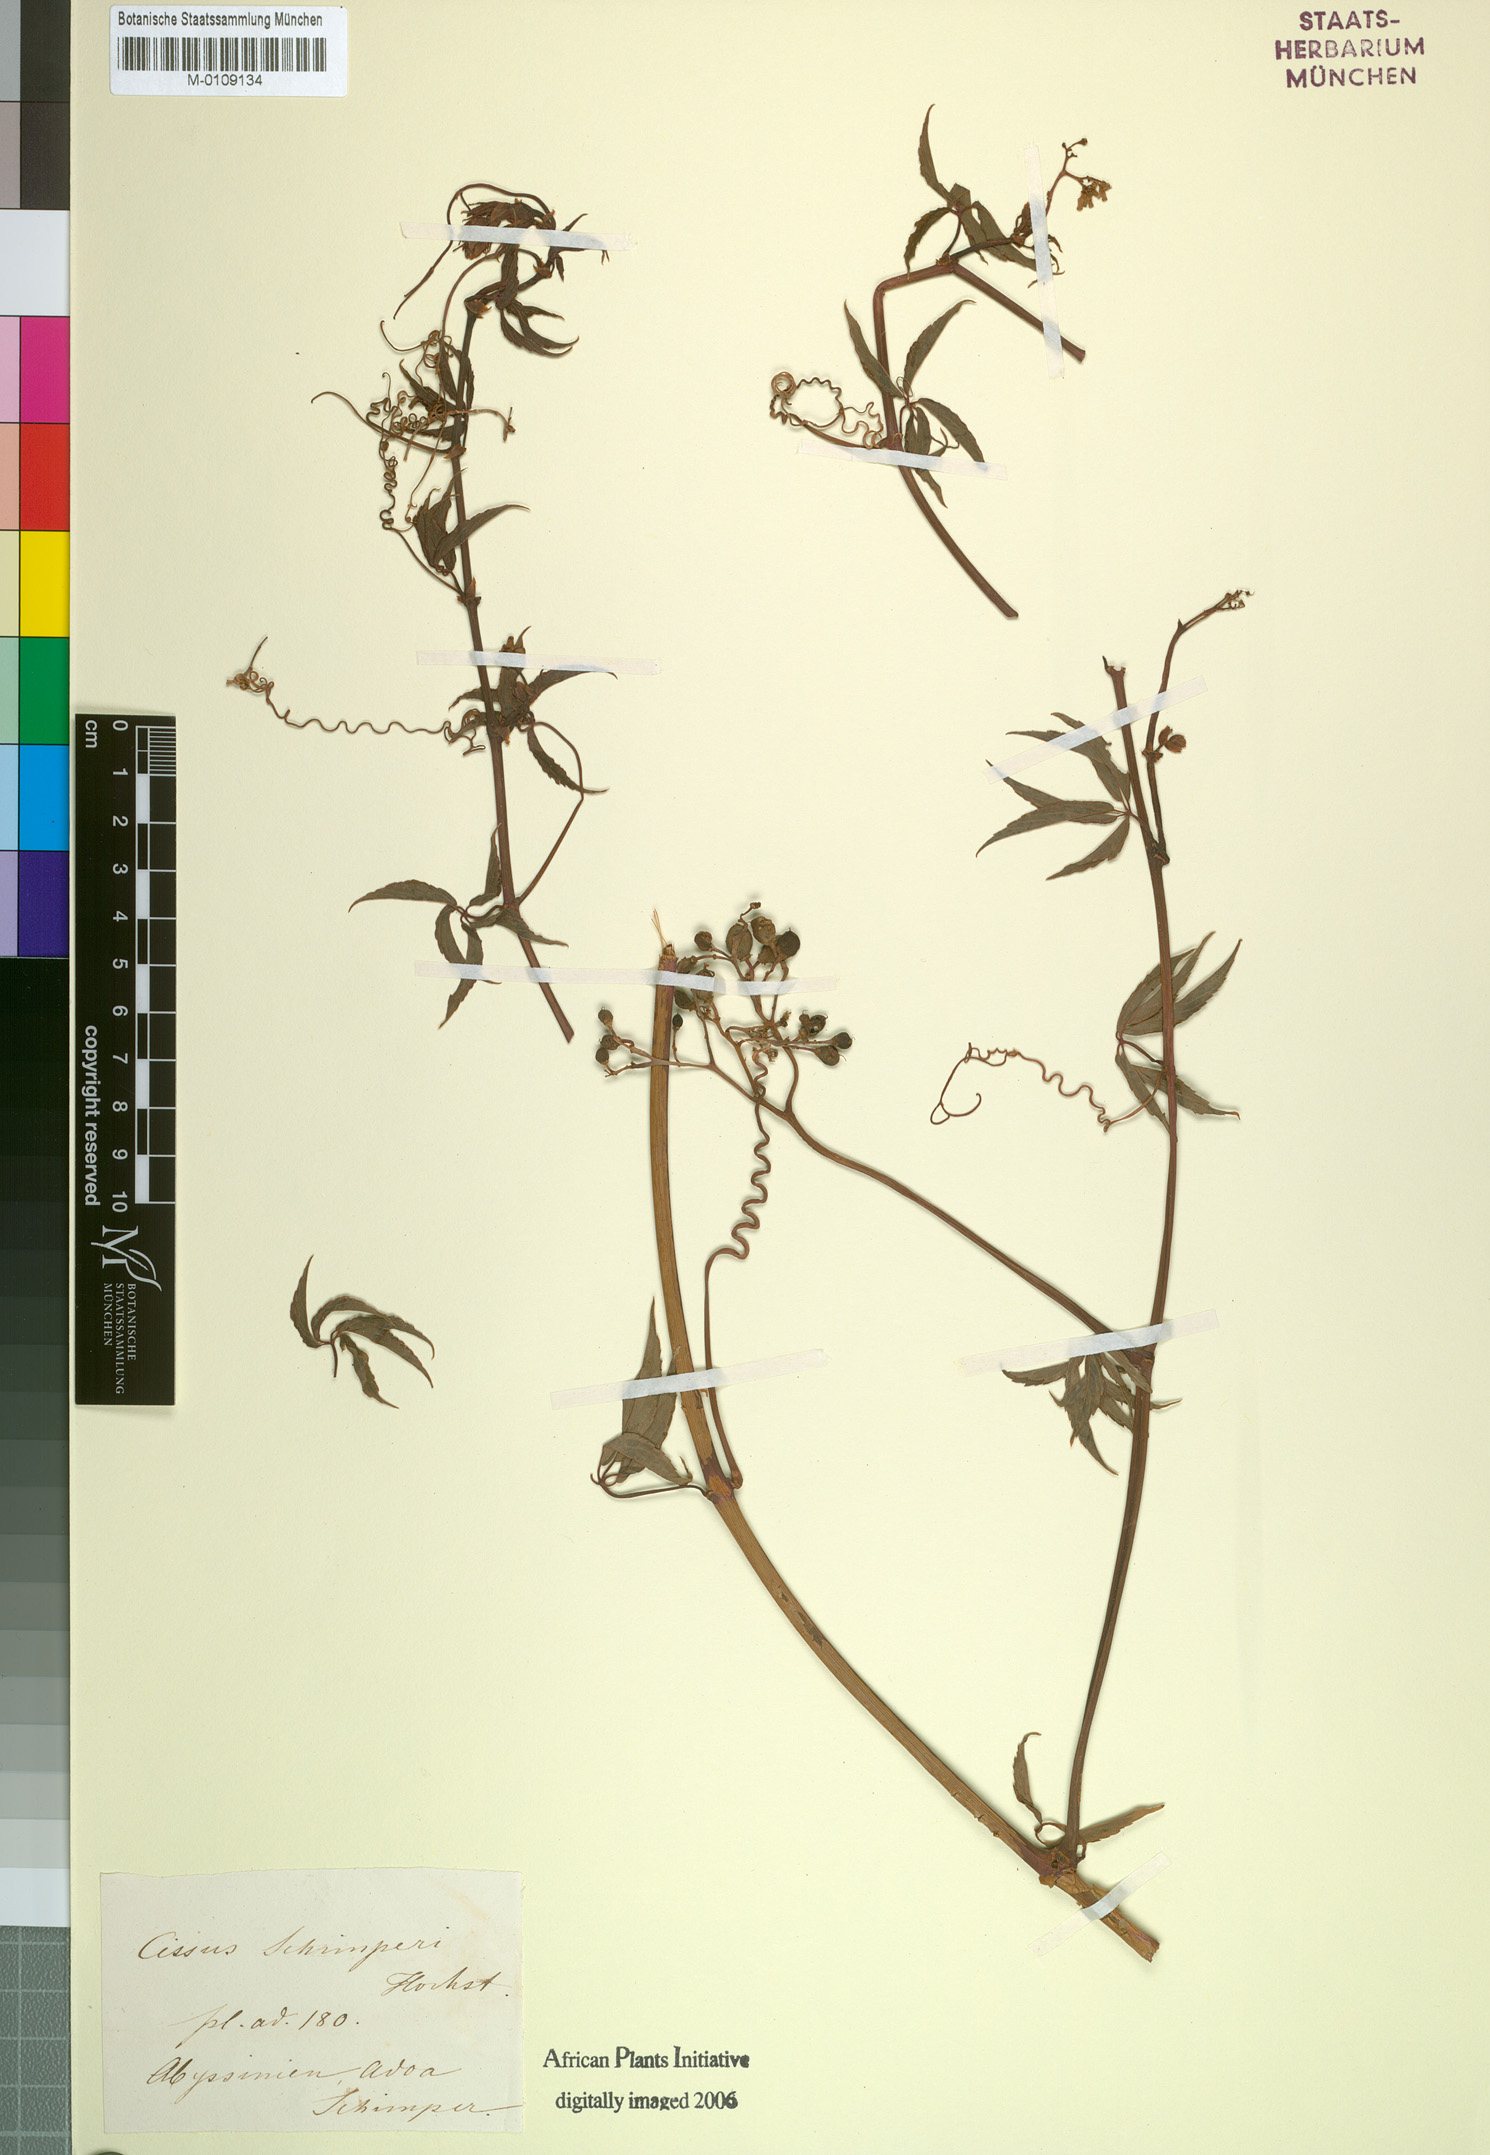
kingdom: Plantae
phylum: Tracheophyta
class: Magnoliopsida
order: Vitales
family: Vitaceae
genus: Cyphostemma
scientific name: Cyphostemma oxyphyllum
